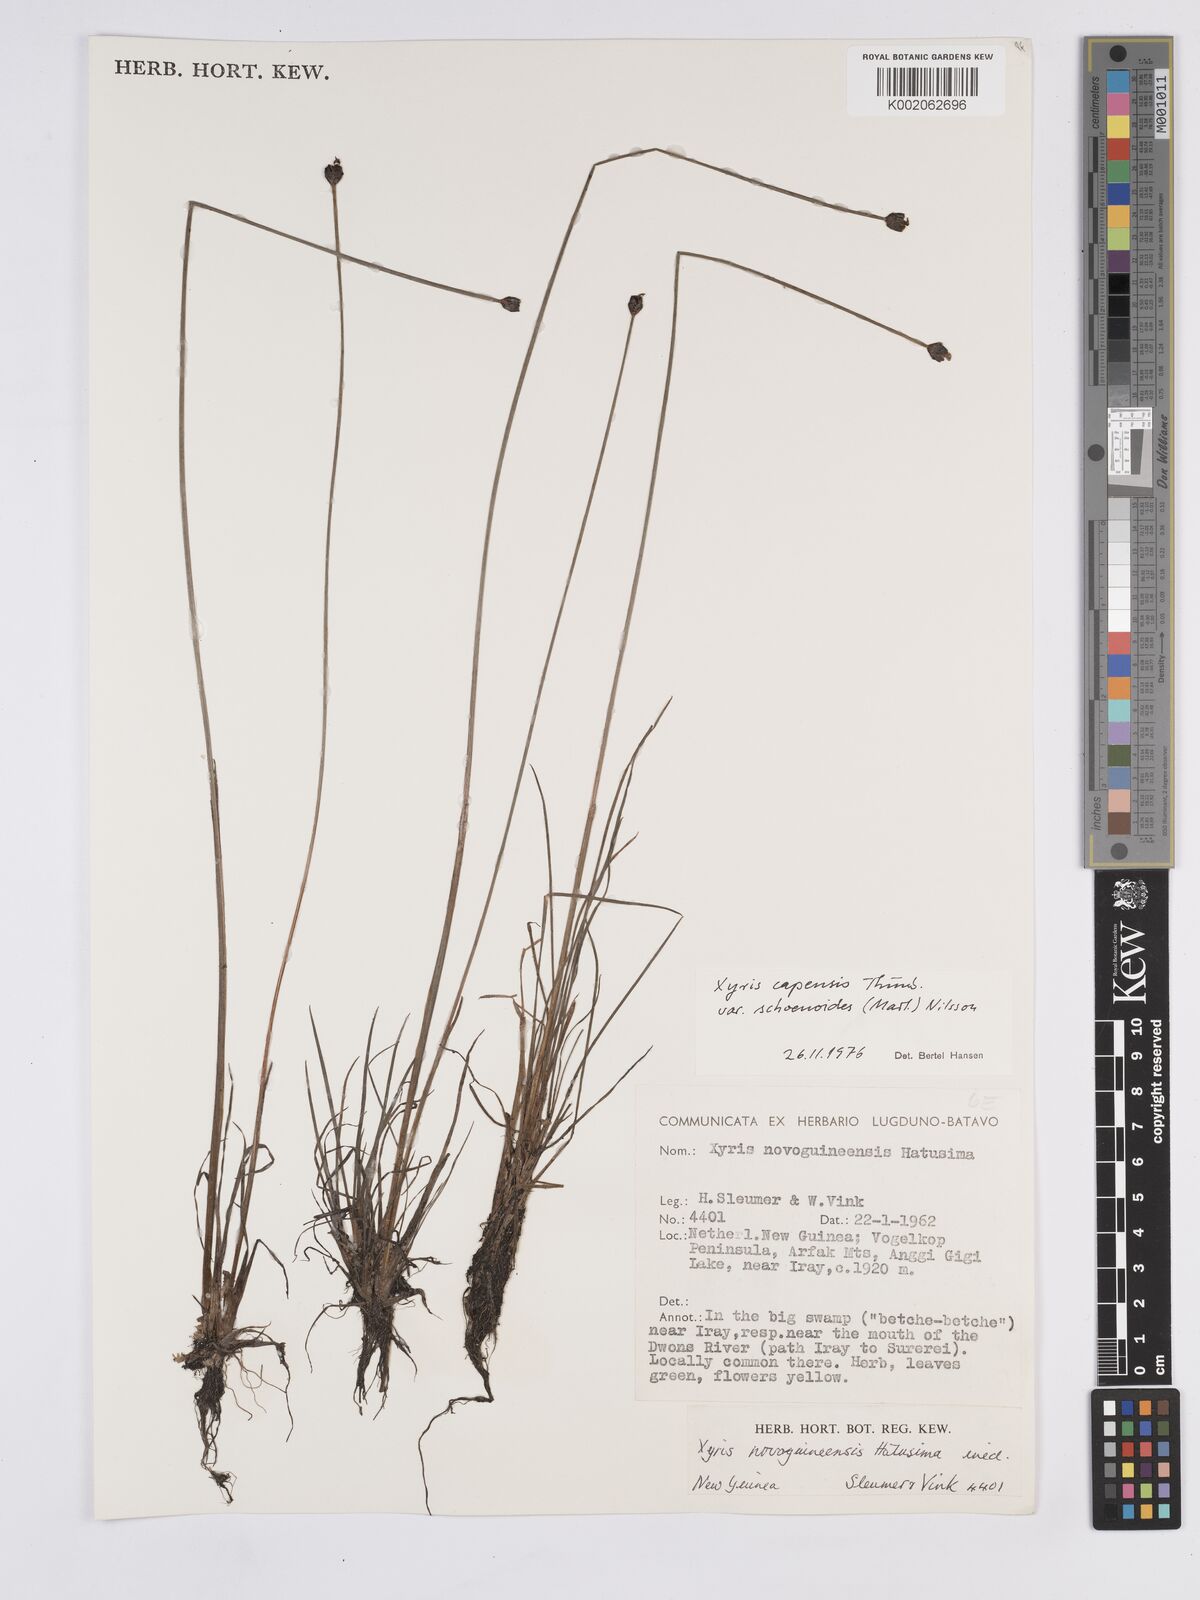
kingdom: Plantae
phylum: Tracheophyta
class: Liliopsida
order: Poales
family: Xyridaceae
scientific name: Xyridaceae
